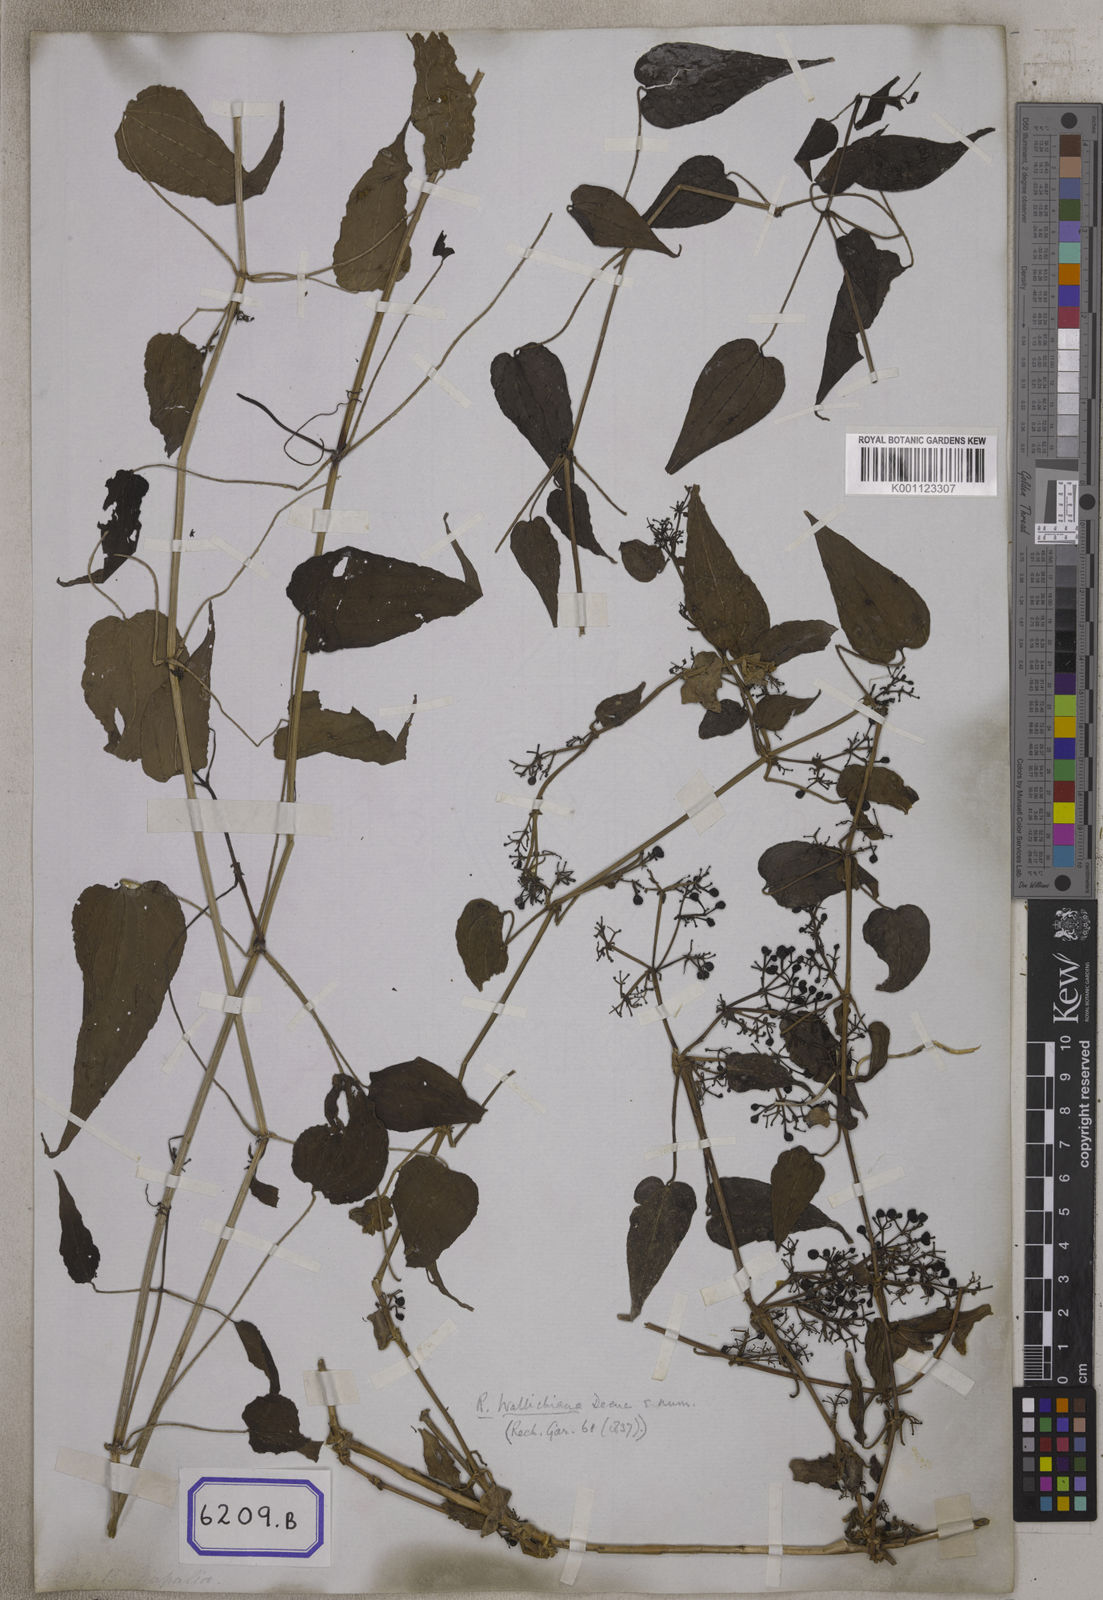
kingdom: Plantae
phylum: Tracheophyta
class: Magnoliopsida
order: Gentianales
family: Rubiaceae
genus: Rubia
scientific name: Rubia cordifolia
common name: Indian madder
